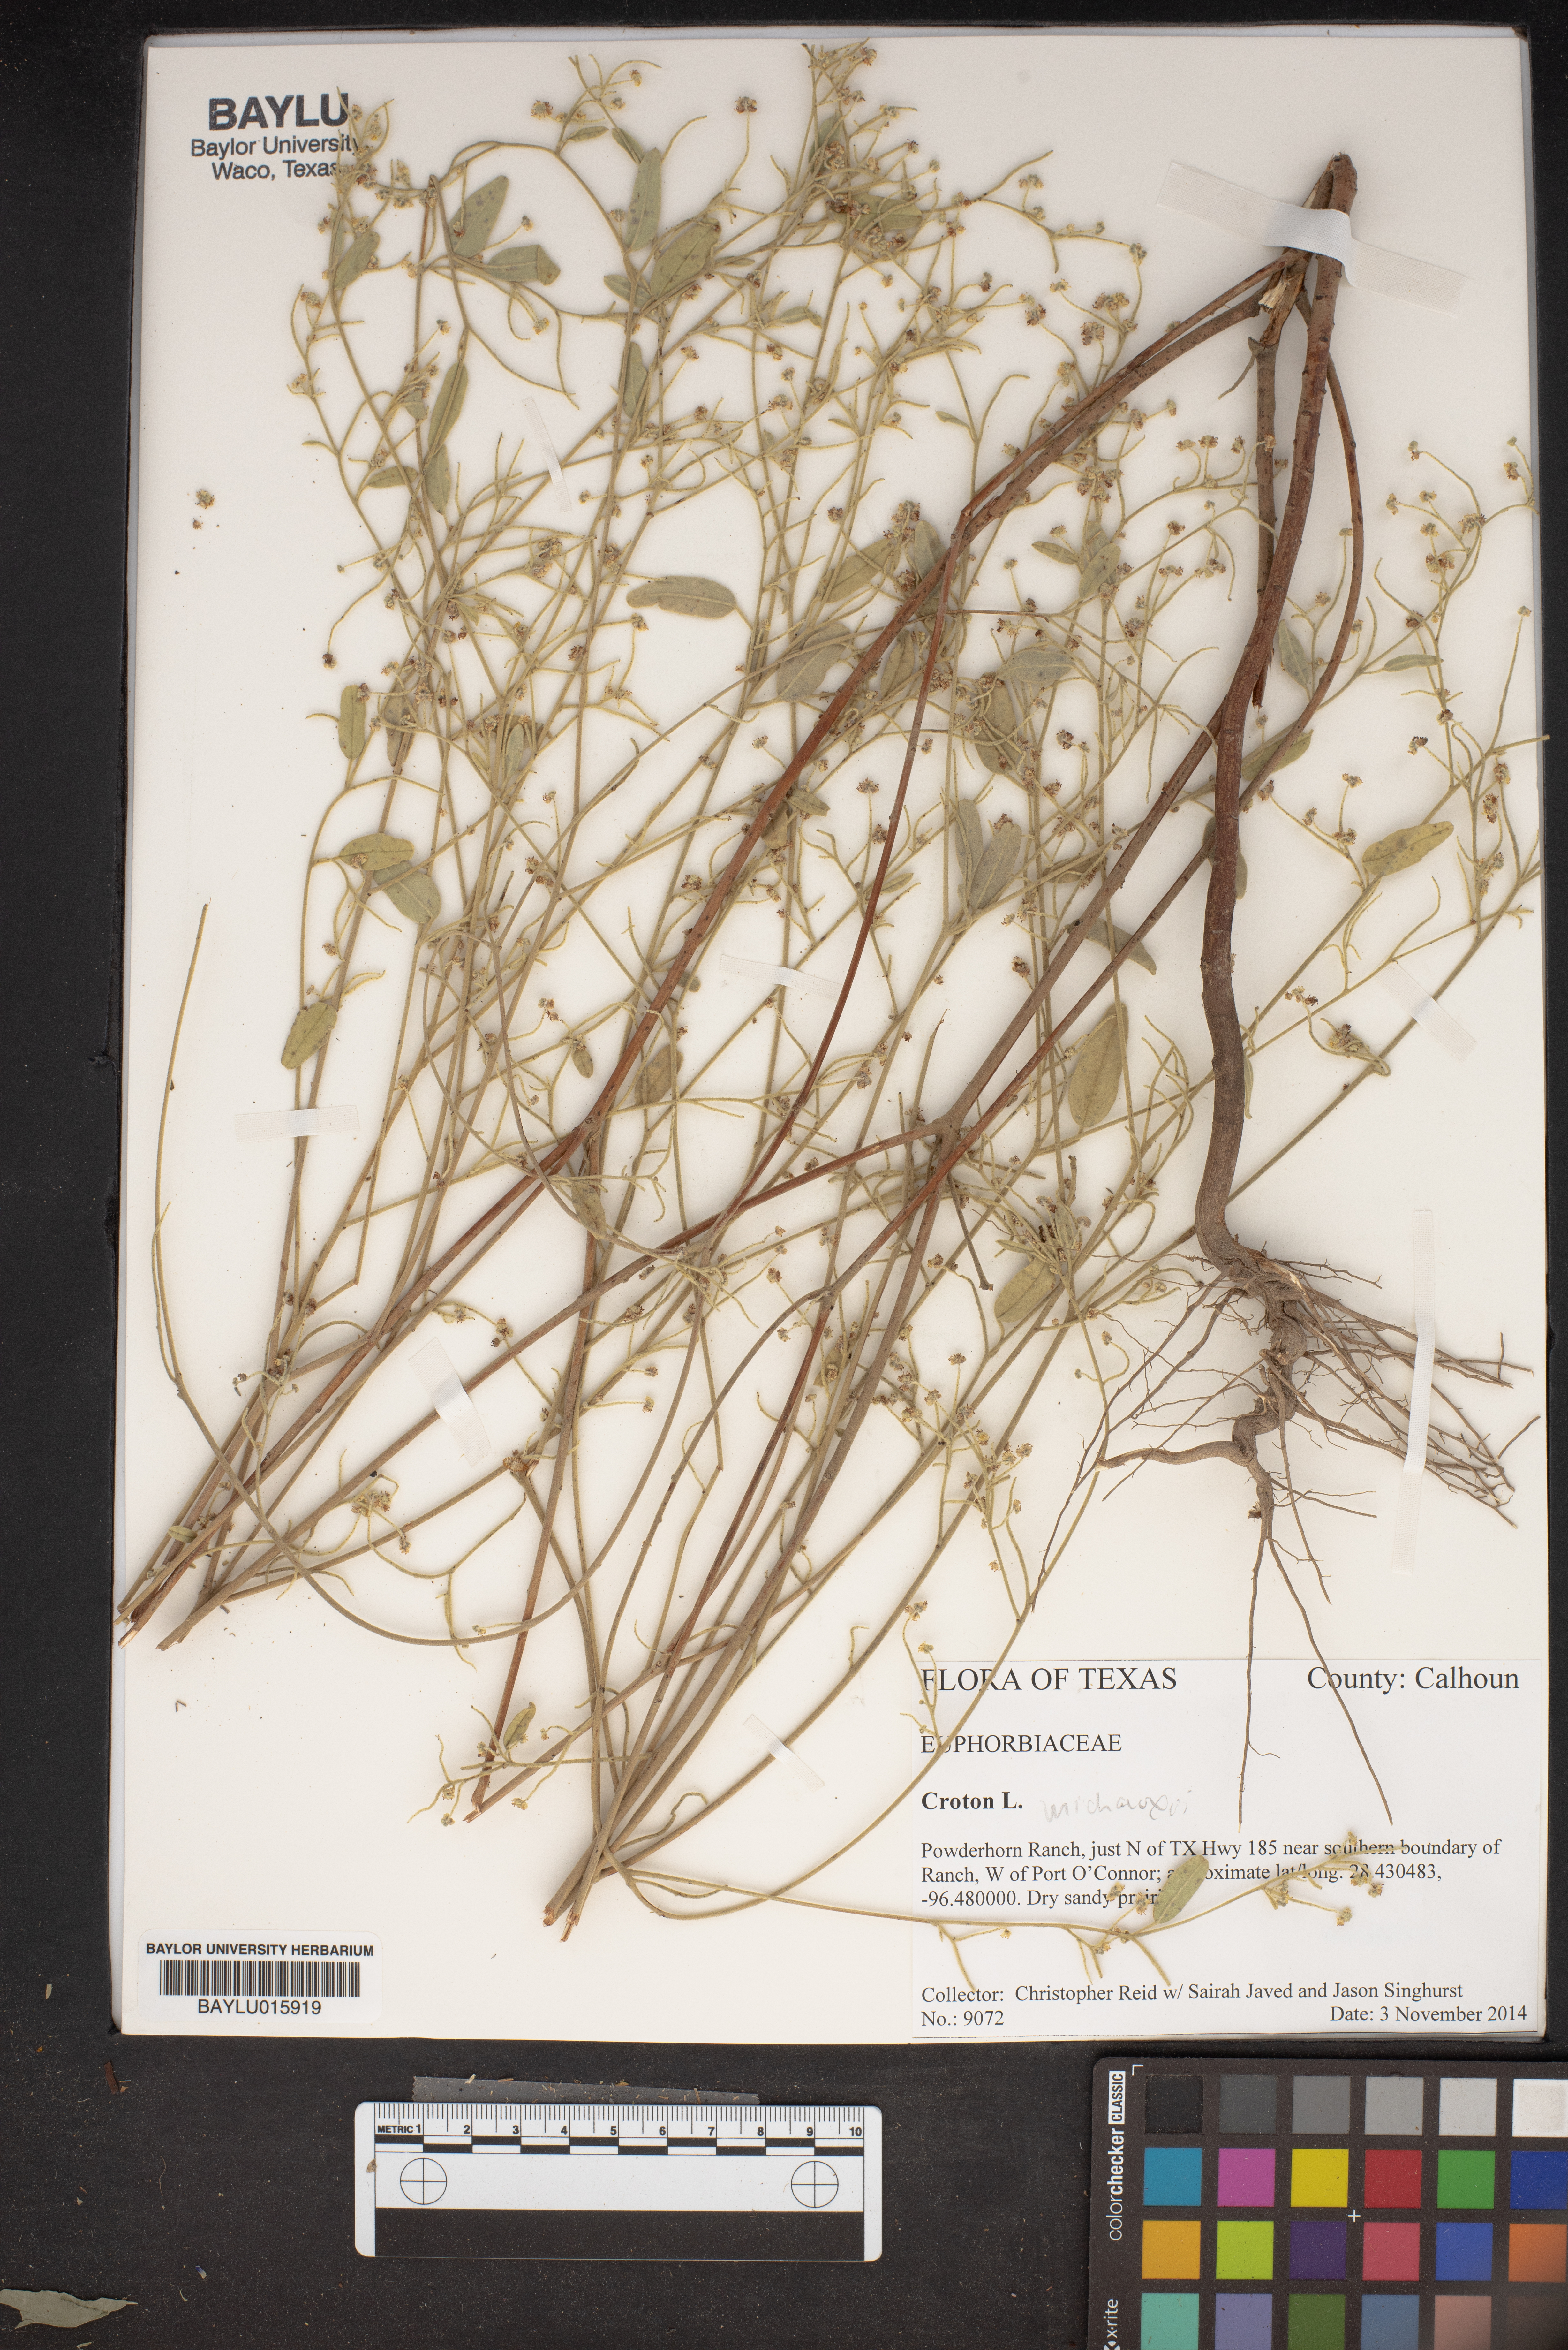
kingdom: Plantae
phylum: Tracheophyta
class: Magnoliopsida
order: Malpighiales
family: Euphorbiaceae
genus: Croton
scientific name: Croton michauxii
